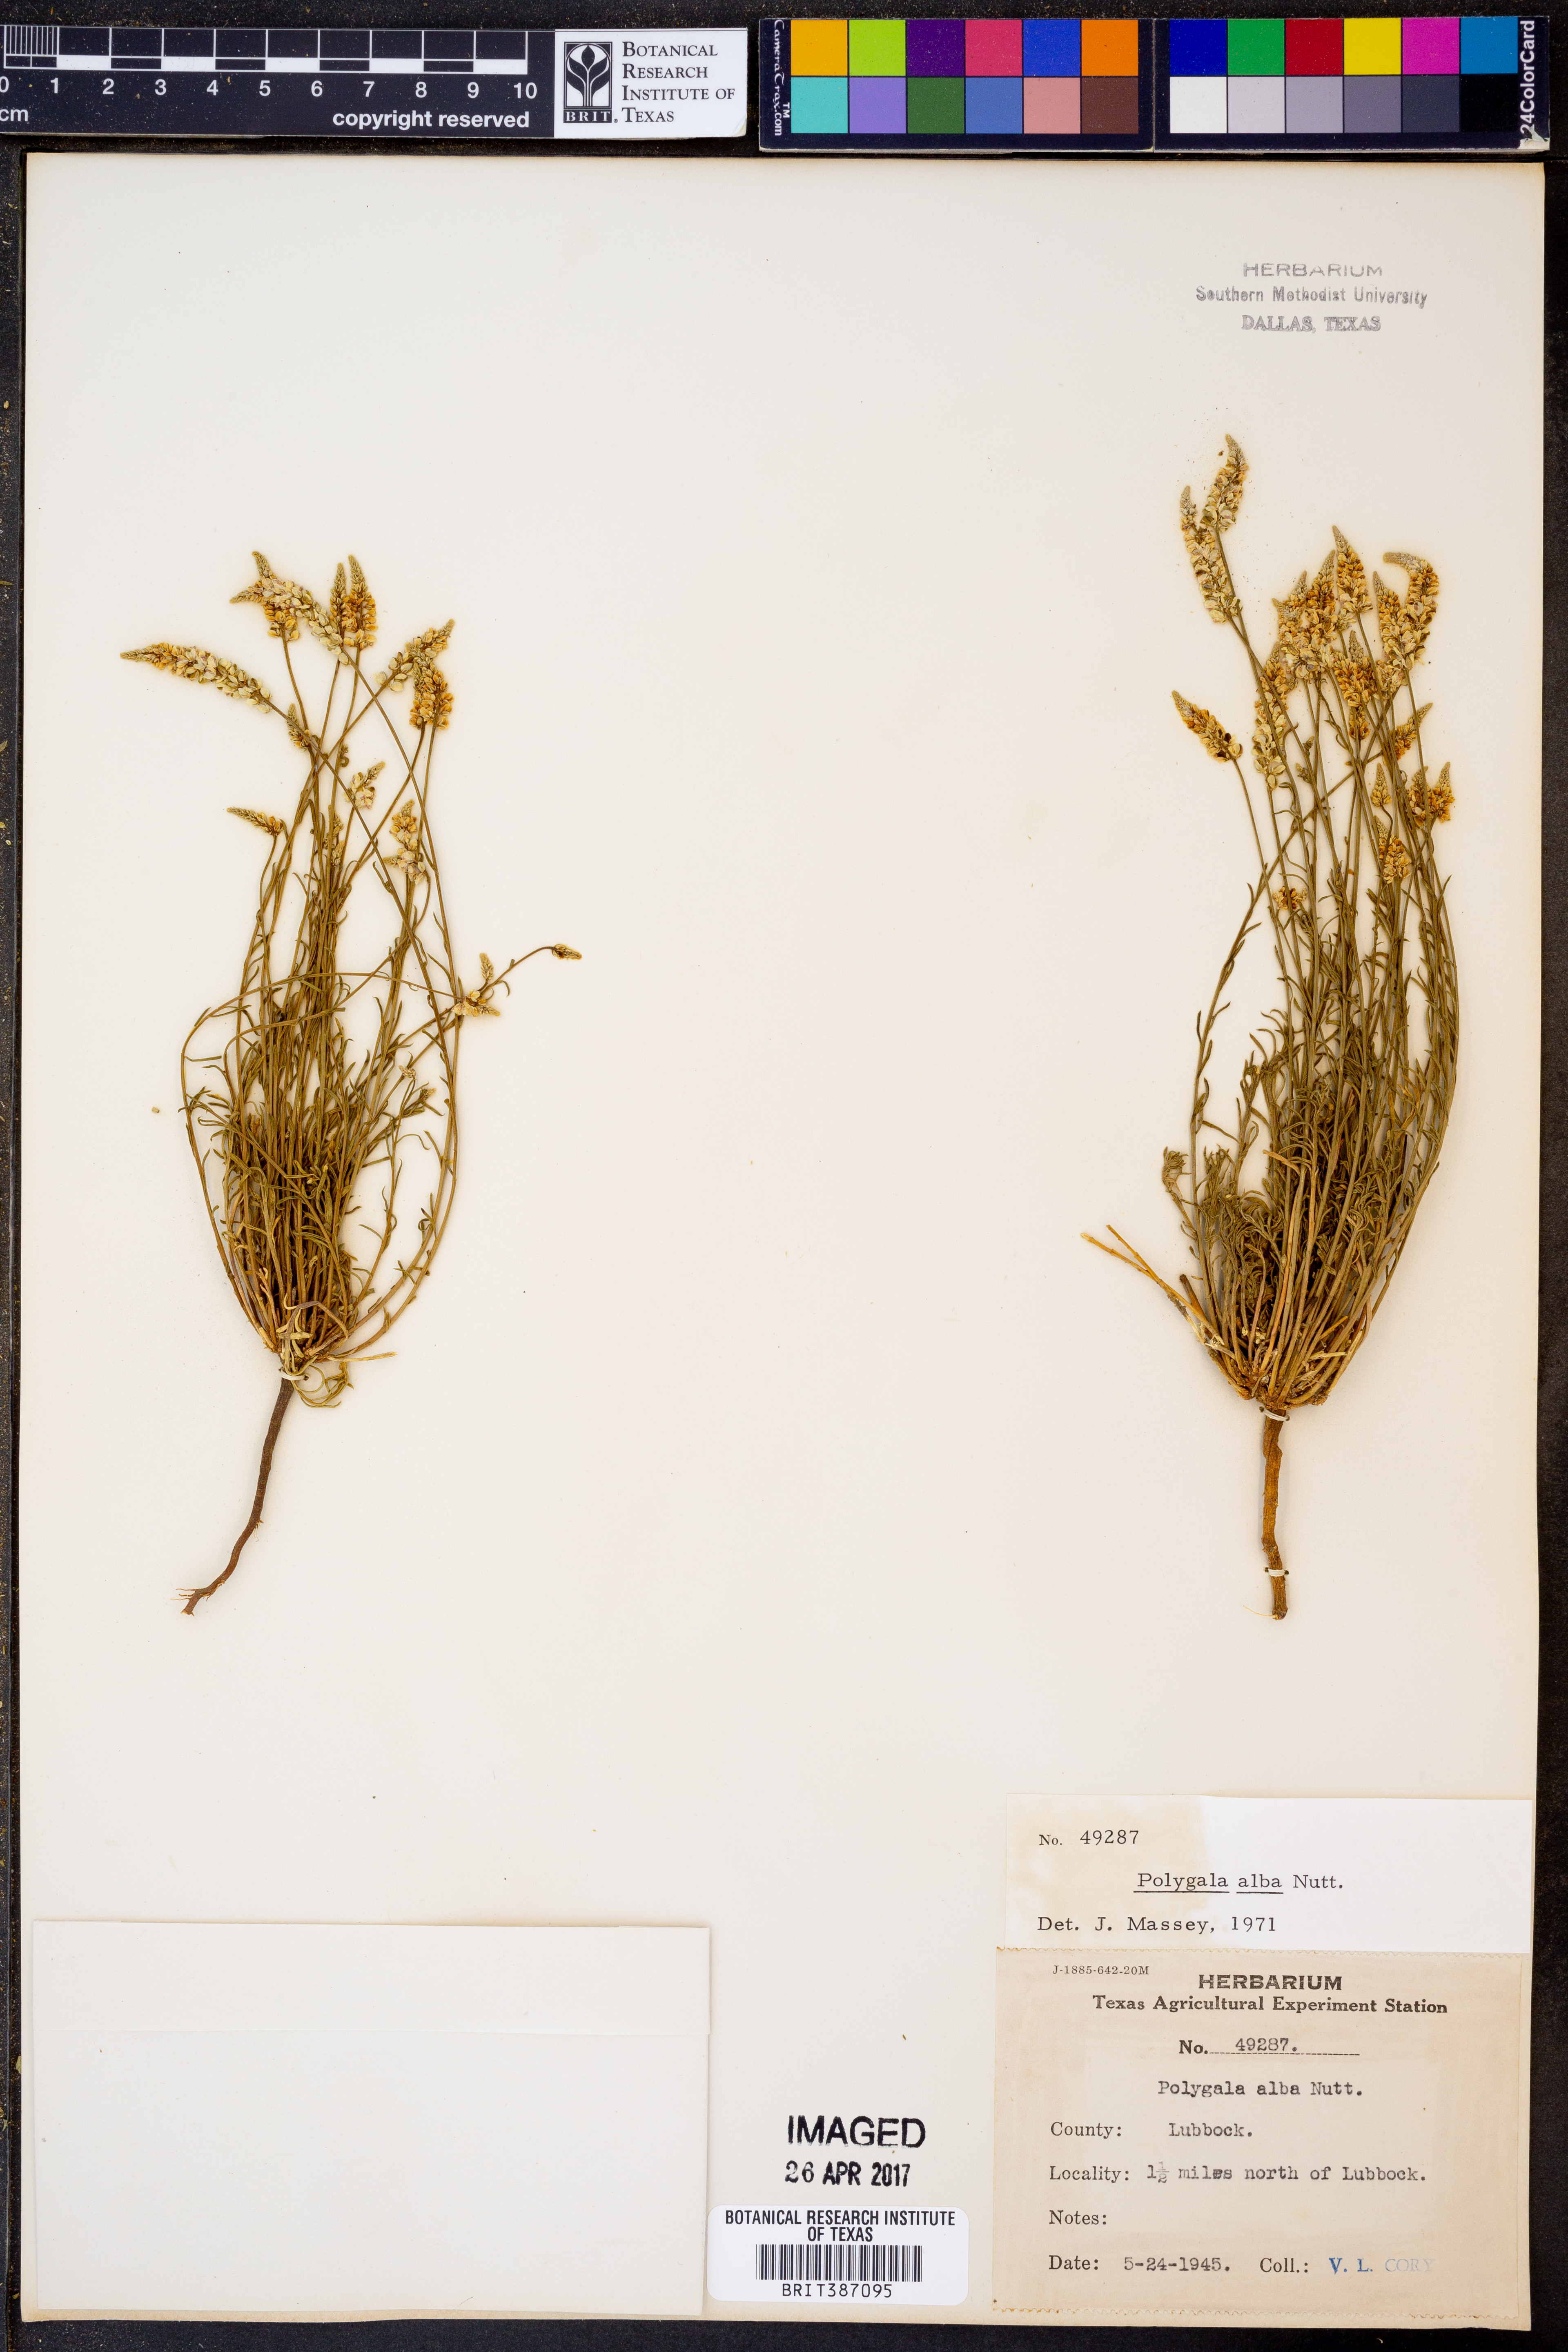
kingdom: Plantae
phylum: Tracheophyta
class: Magnoliopsida
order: Fabales
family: Polygalaceae
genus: Polygala
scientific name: Polygala alba
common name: White milkwort
